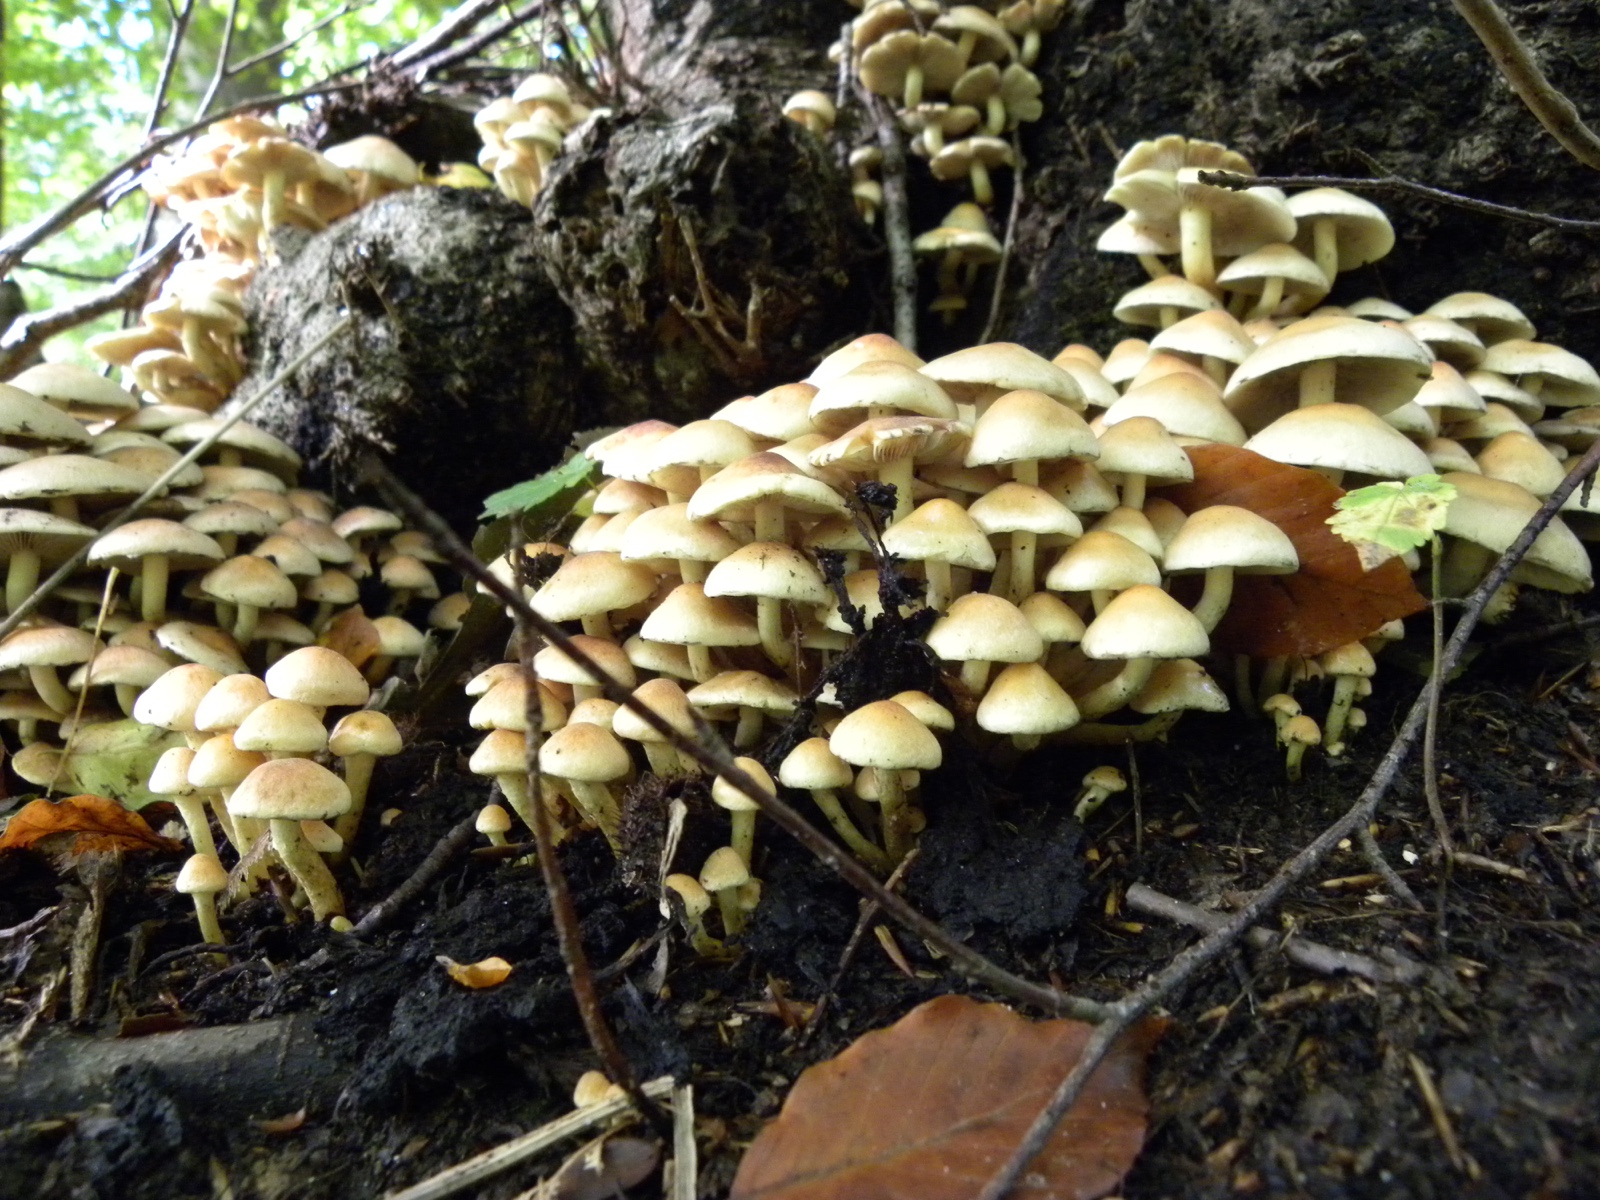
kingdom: Fungi
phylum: Basidiomycota
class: Agaricomycetes
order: Agaricales
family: Strophariaceae
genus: Hypholoma
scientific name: Hypholoma fasciculare
